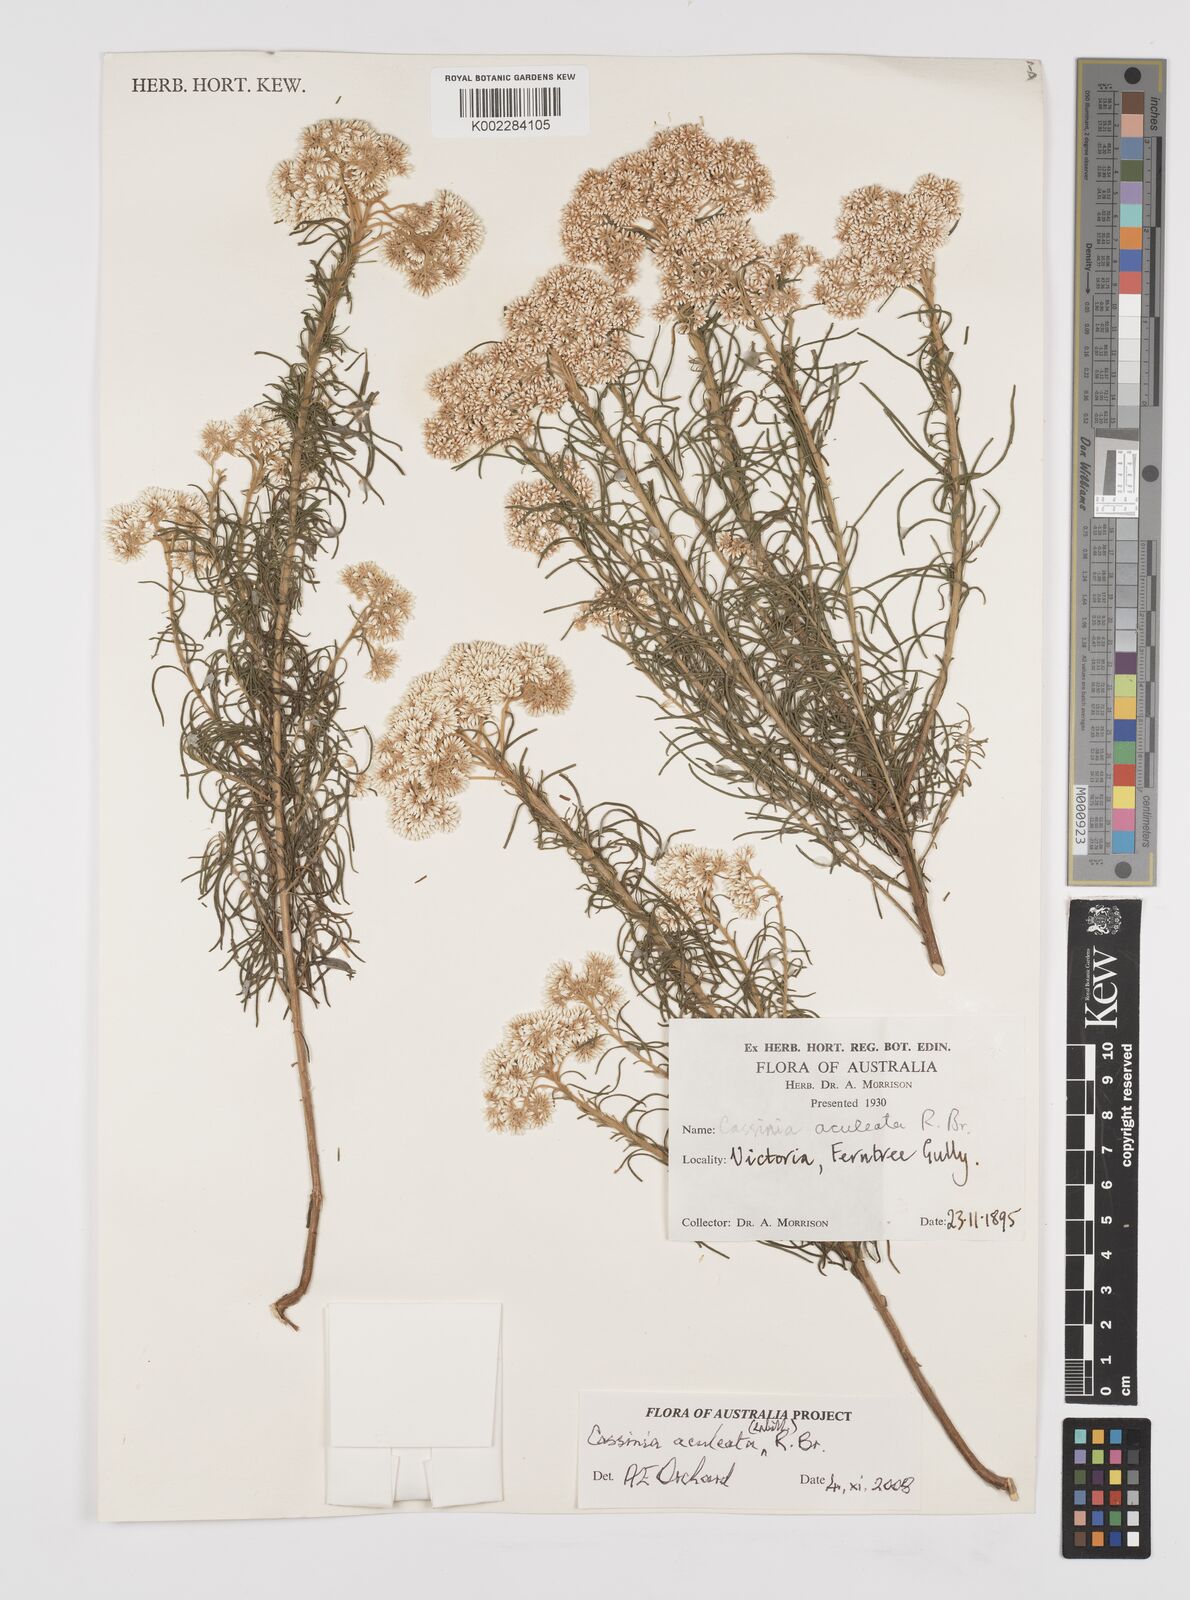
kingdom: Plantae
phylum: Tracheophyta
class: Magnoliopsida
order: Asterales
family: Asteraceae
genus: Cassinia
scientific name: Cassinia aculeata
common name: Australian tauhinu
